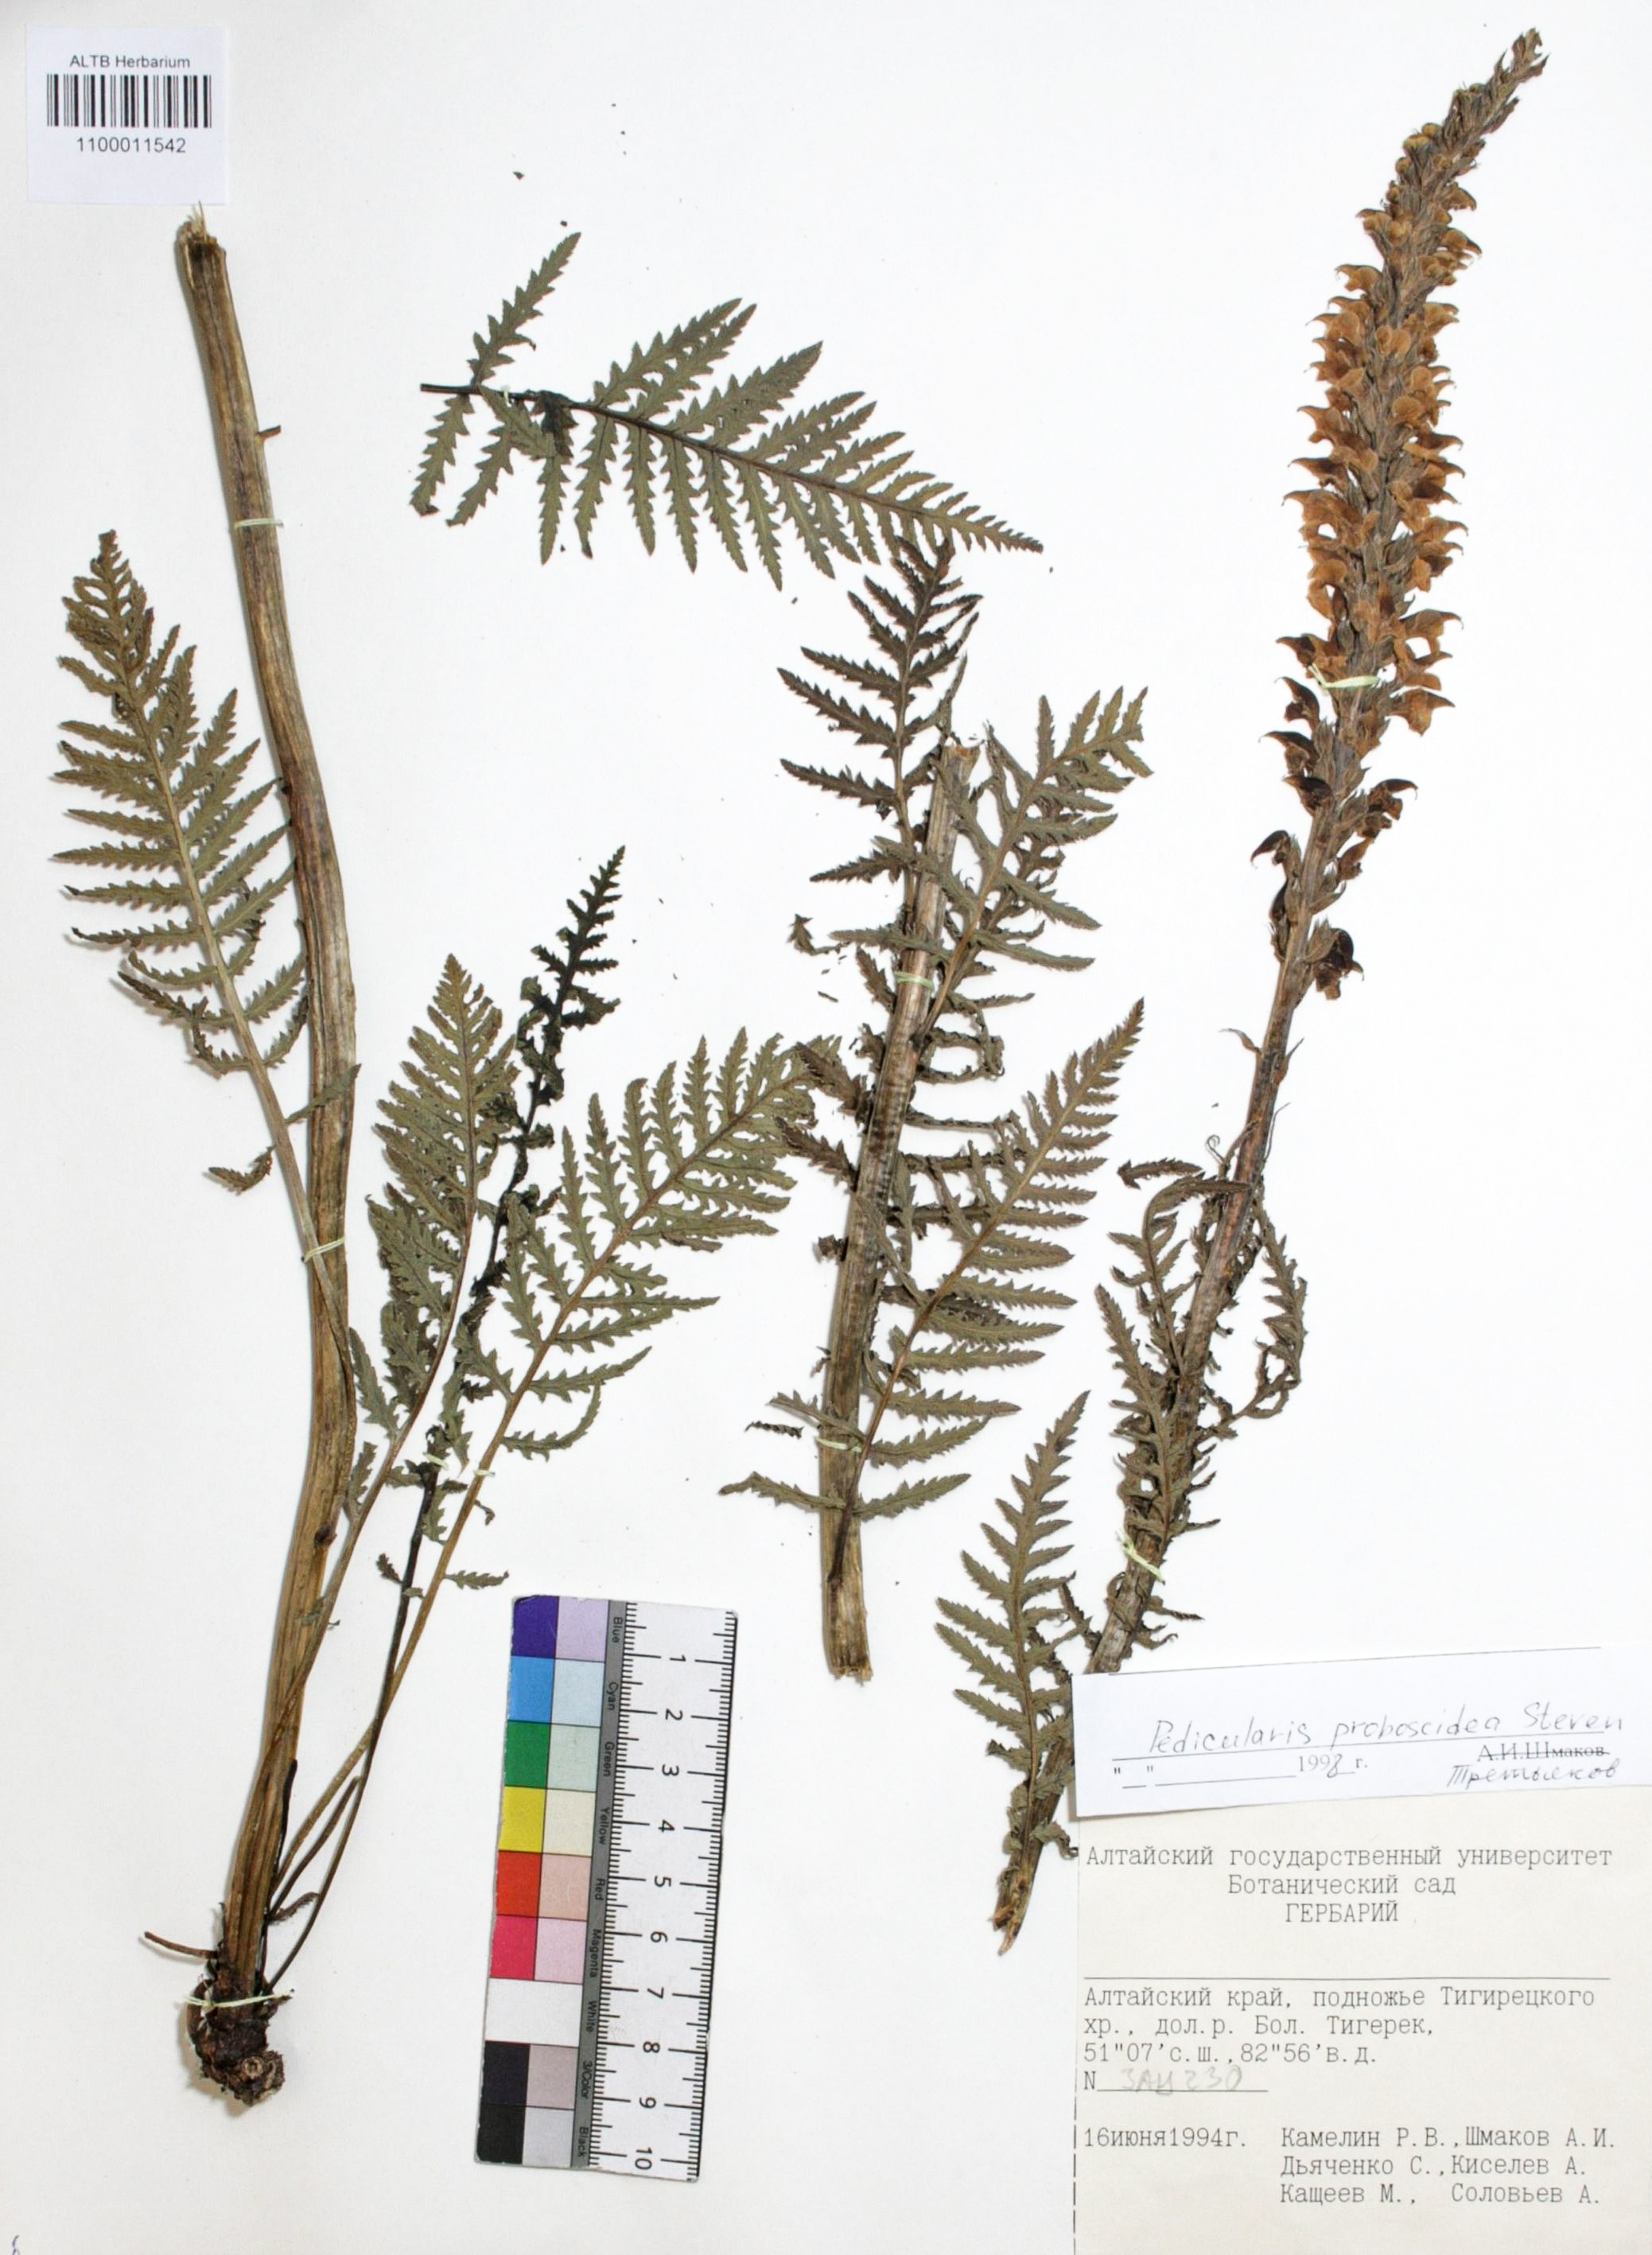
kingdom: Plantae
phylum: Tracheophyta
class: Magnoliopsida
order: Lamiales
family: Orobanchaceae
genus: Pedicularis
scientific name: Pedicularis proboscidea
